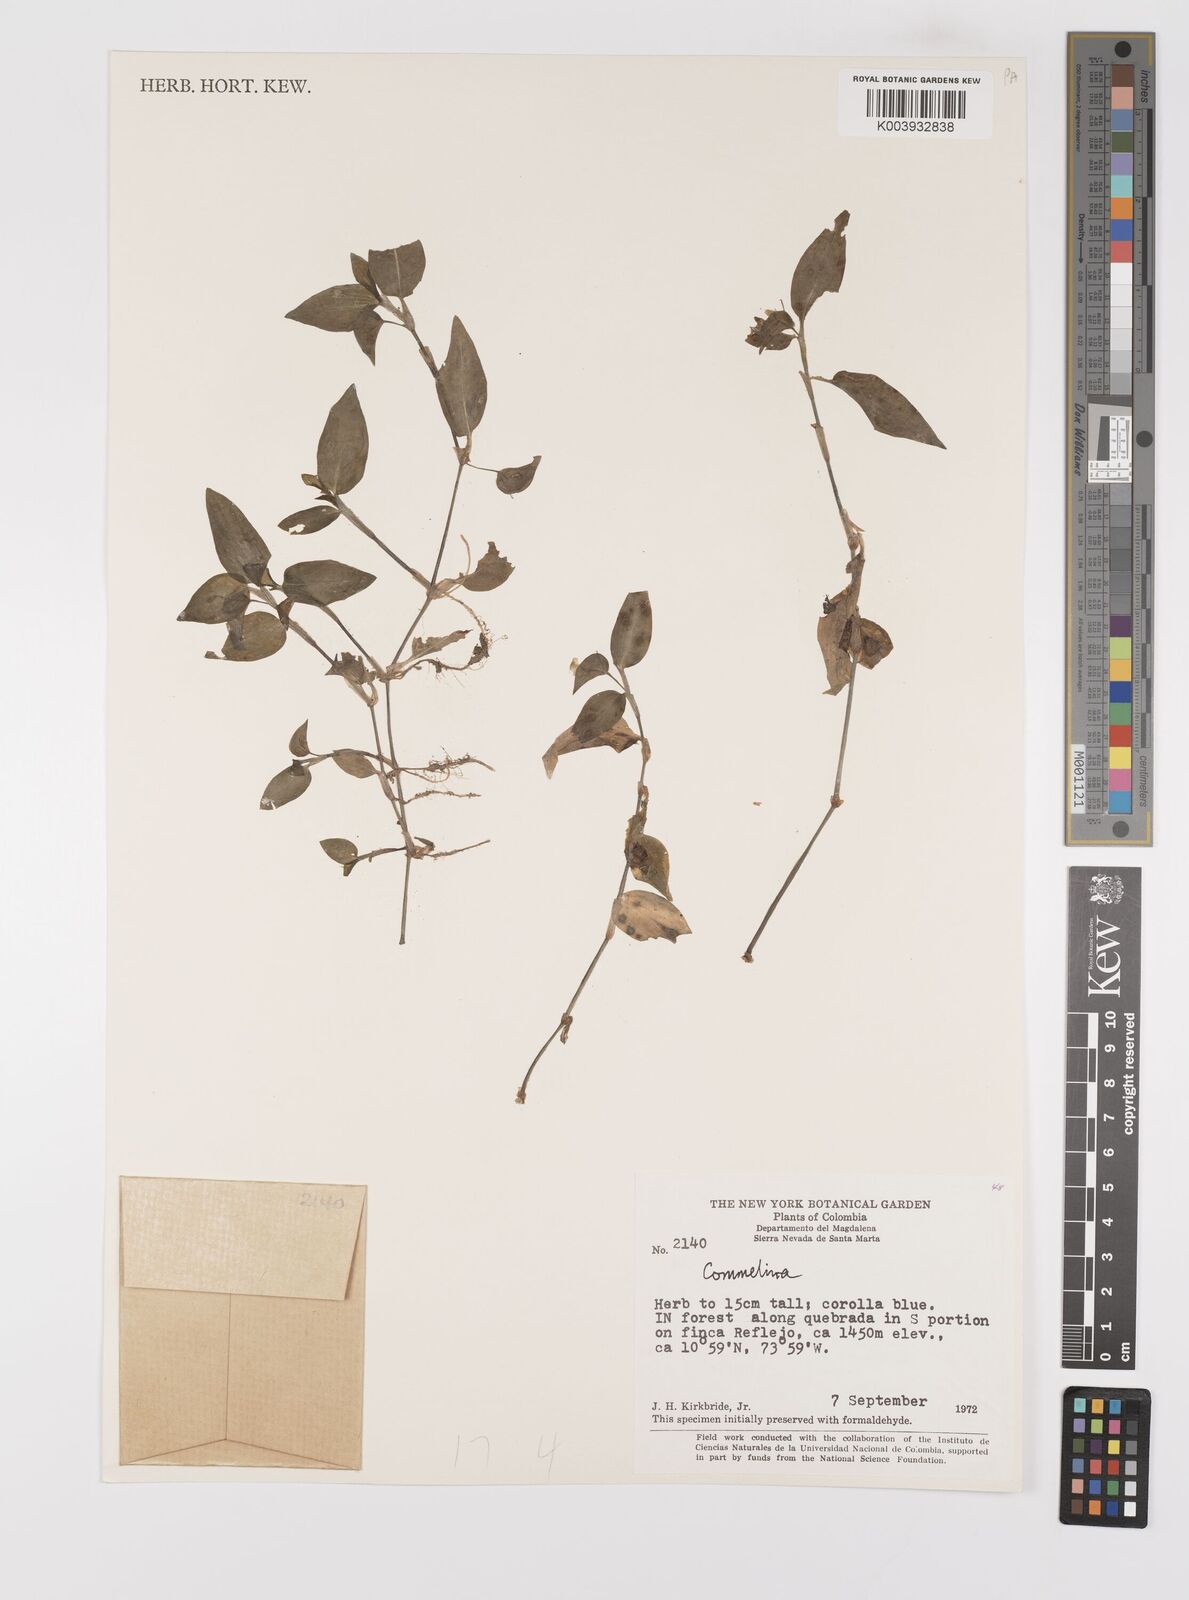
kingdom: Plantae
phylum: Tracheophyta
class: Liliopsida
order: Commelinales
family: Commelinaceae
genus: Commelina
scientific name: Commelina
